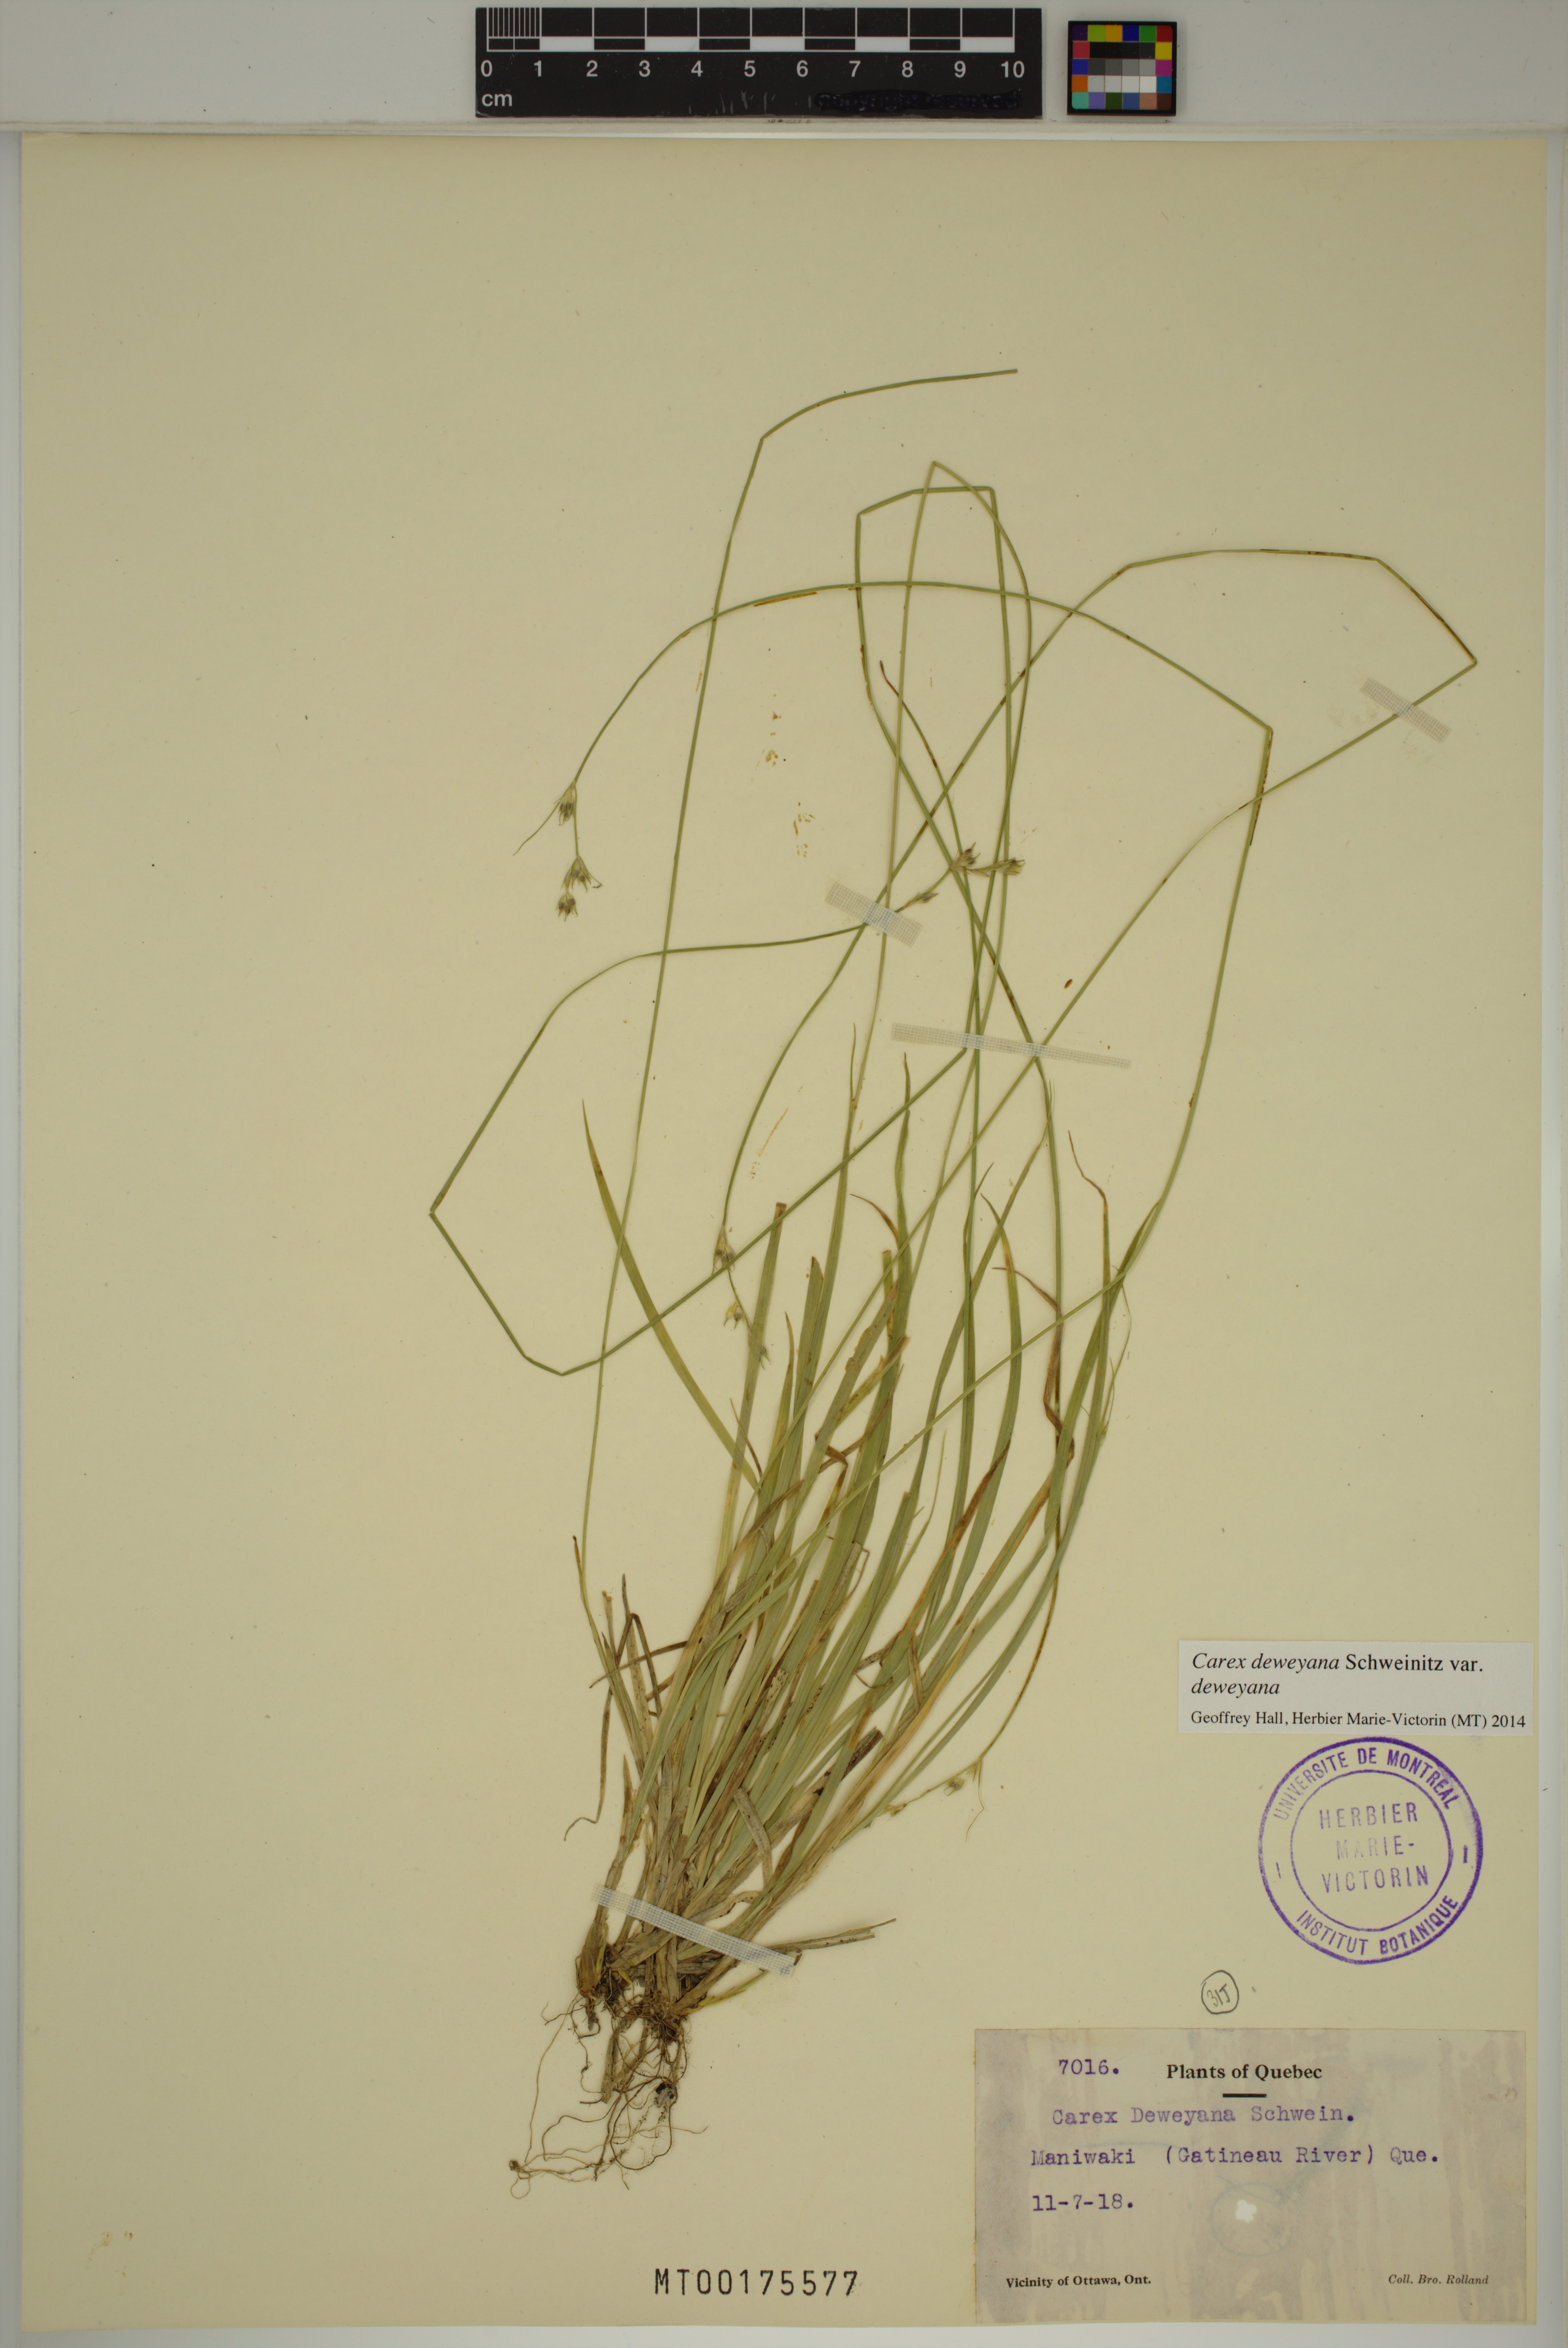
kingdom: Plantae
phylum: Tracheophyta
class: Liliopsida
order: Poales
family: Cyperaceae
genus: Carex
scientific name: Carex deweyana
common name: Dewey's sedge
